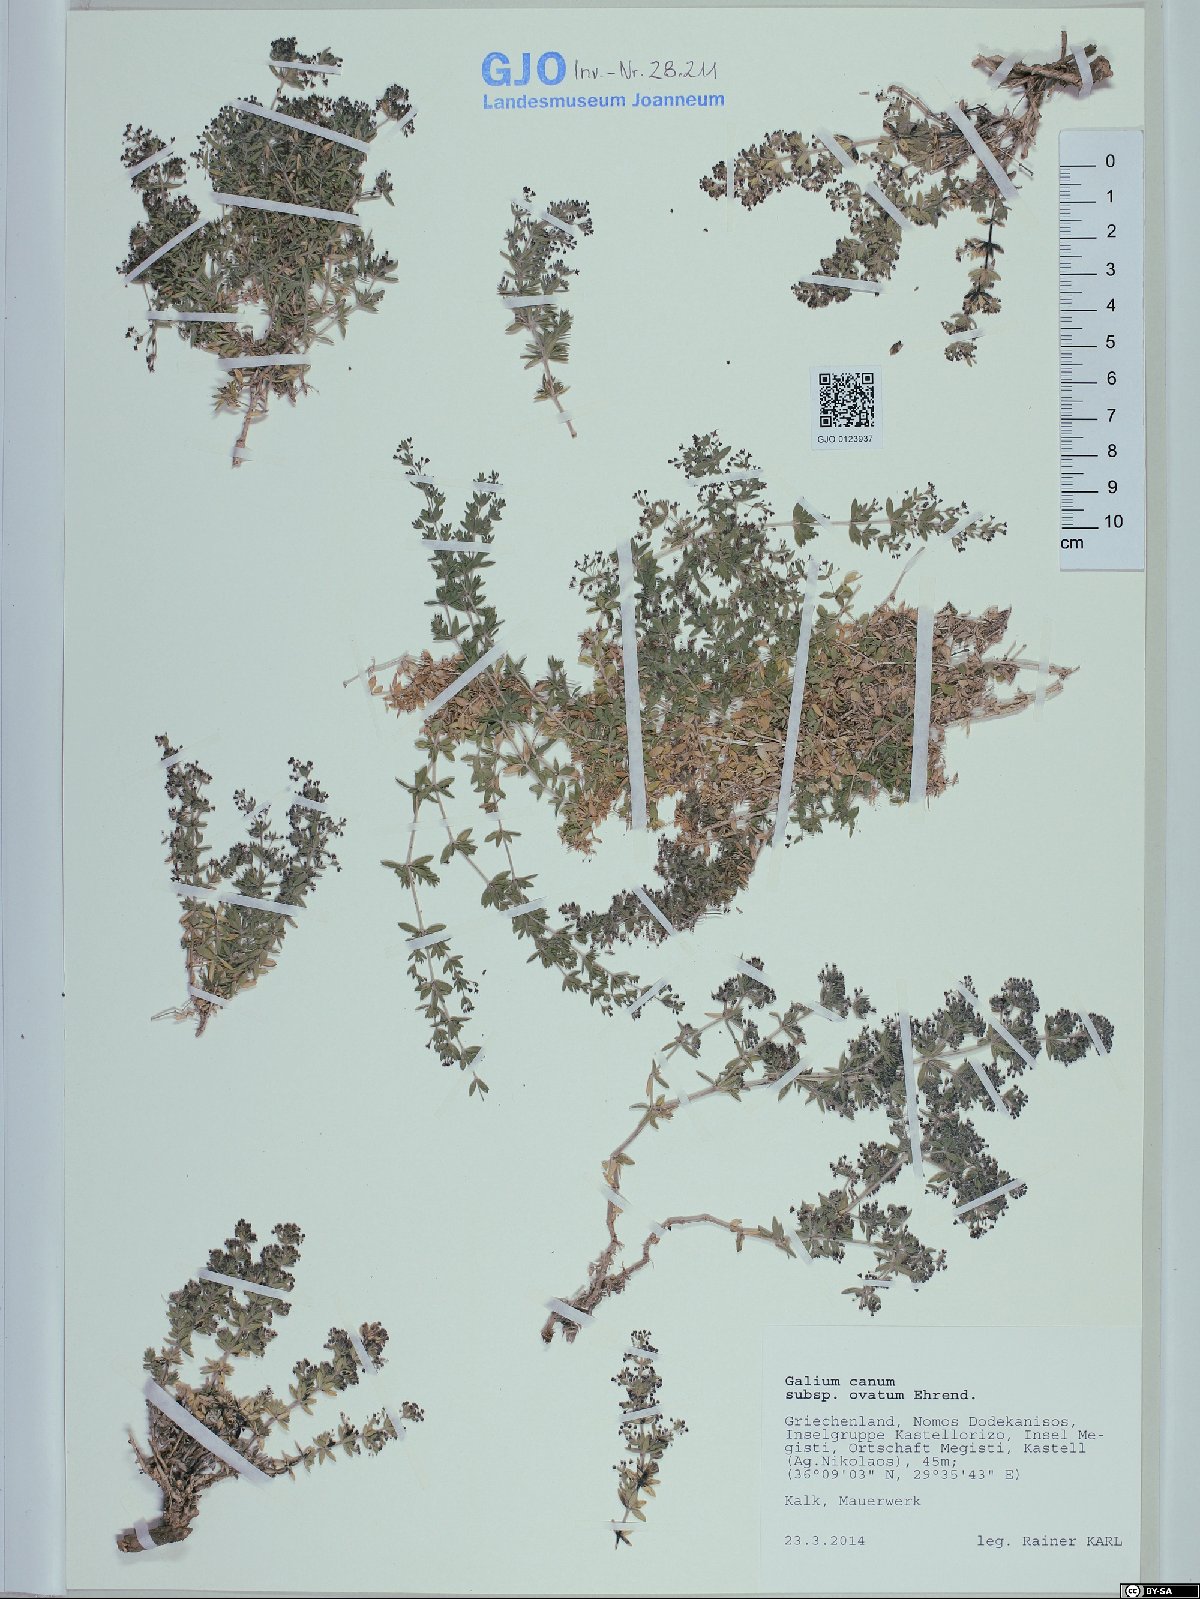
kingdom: Plantae
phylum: Tracheophyta
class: Magnoliopsida
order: Gentianales
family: Rubiaceae
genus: Galium
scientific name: Galium canum
